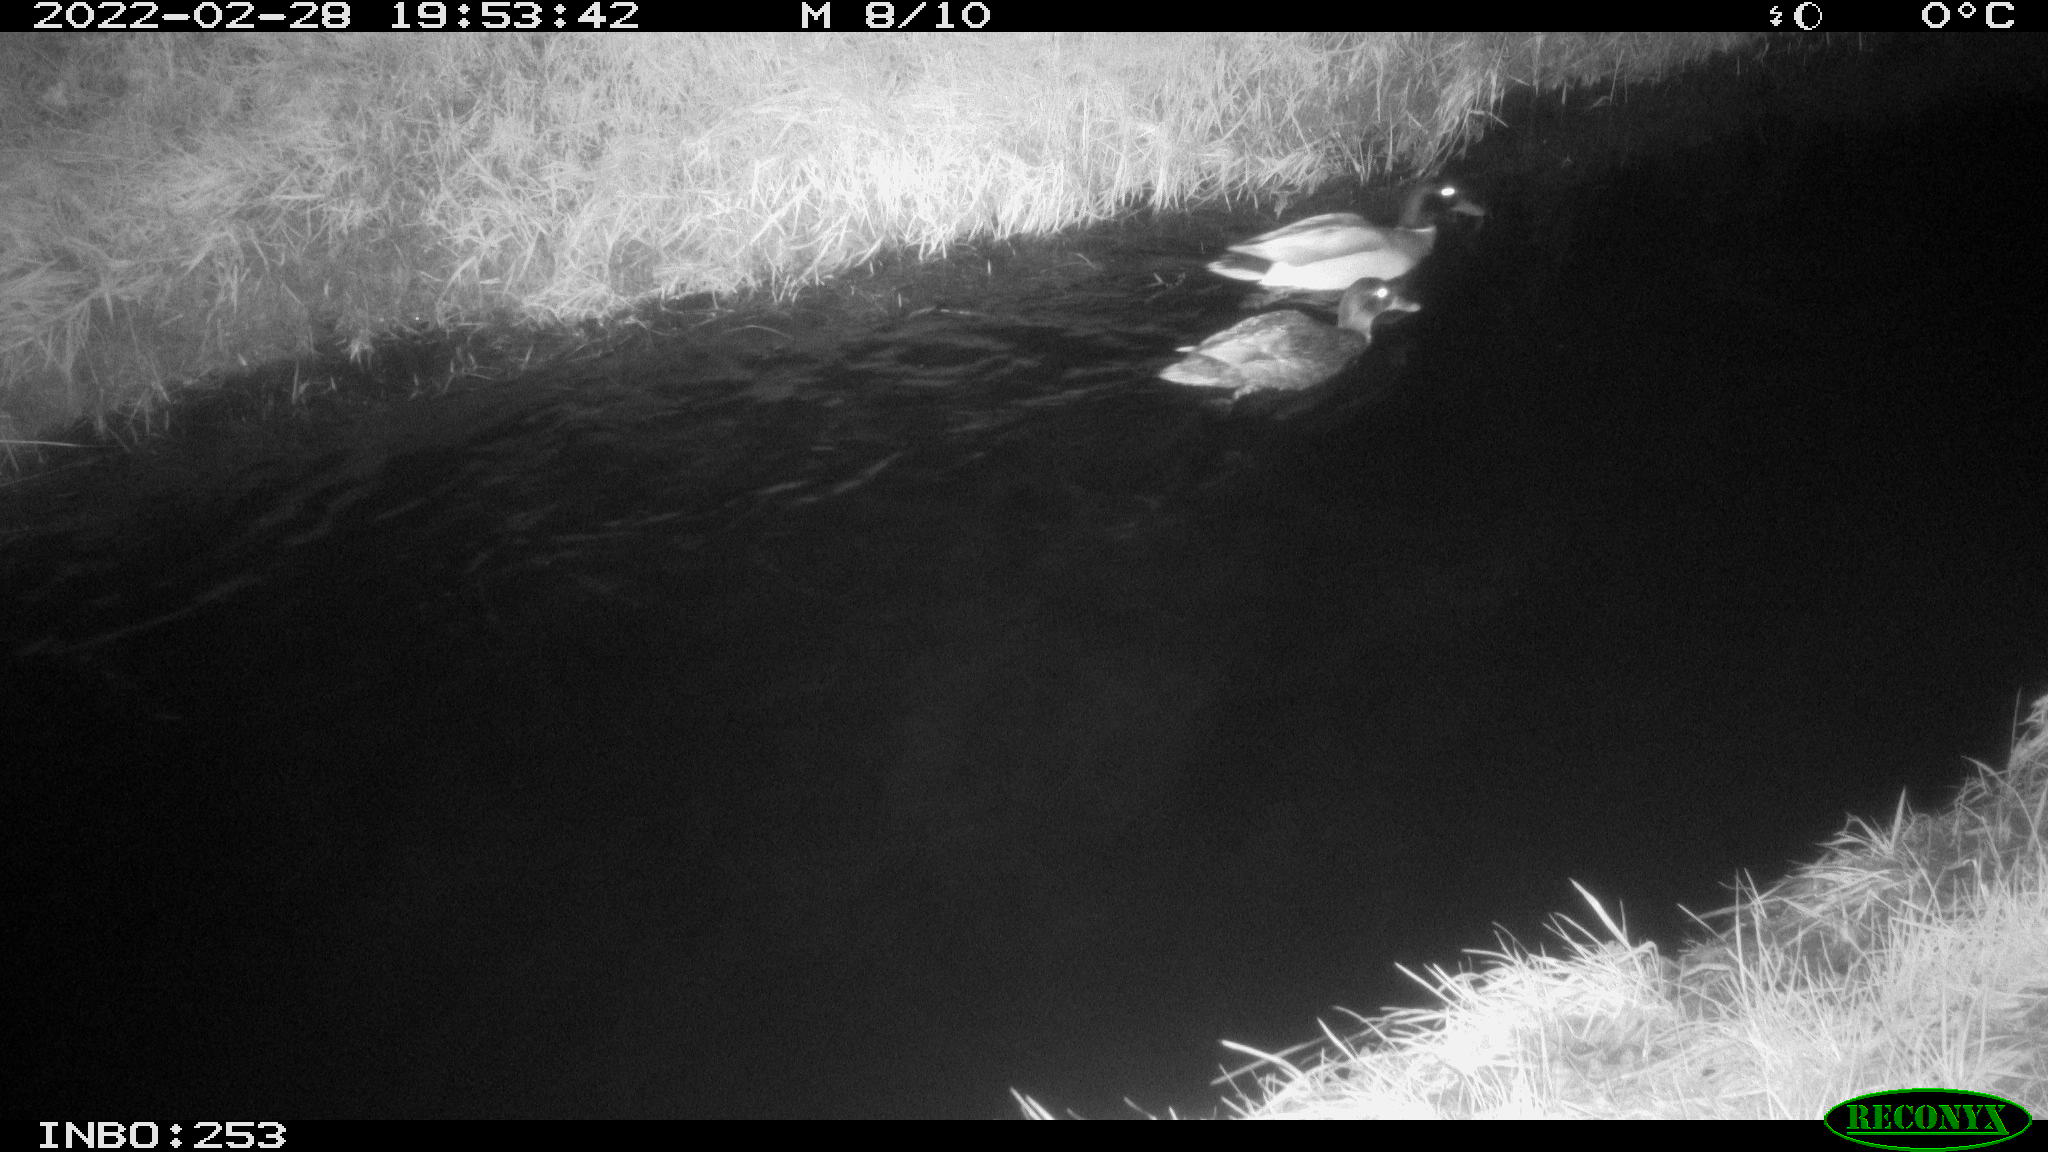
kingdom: Animalia
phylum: Chordata
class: Aves
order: Anseriformes
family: Anatidae
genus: Anas
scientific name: Anas platyrhynchos
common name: Mallard
